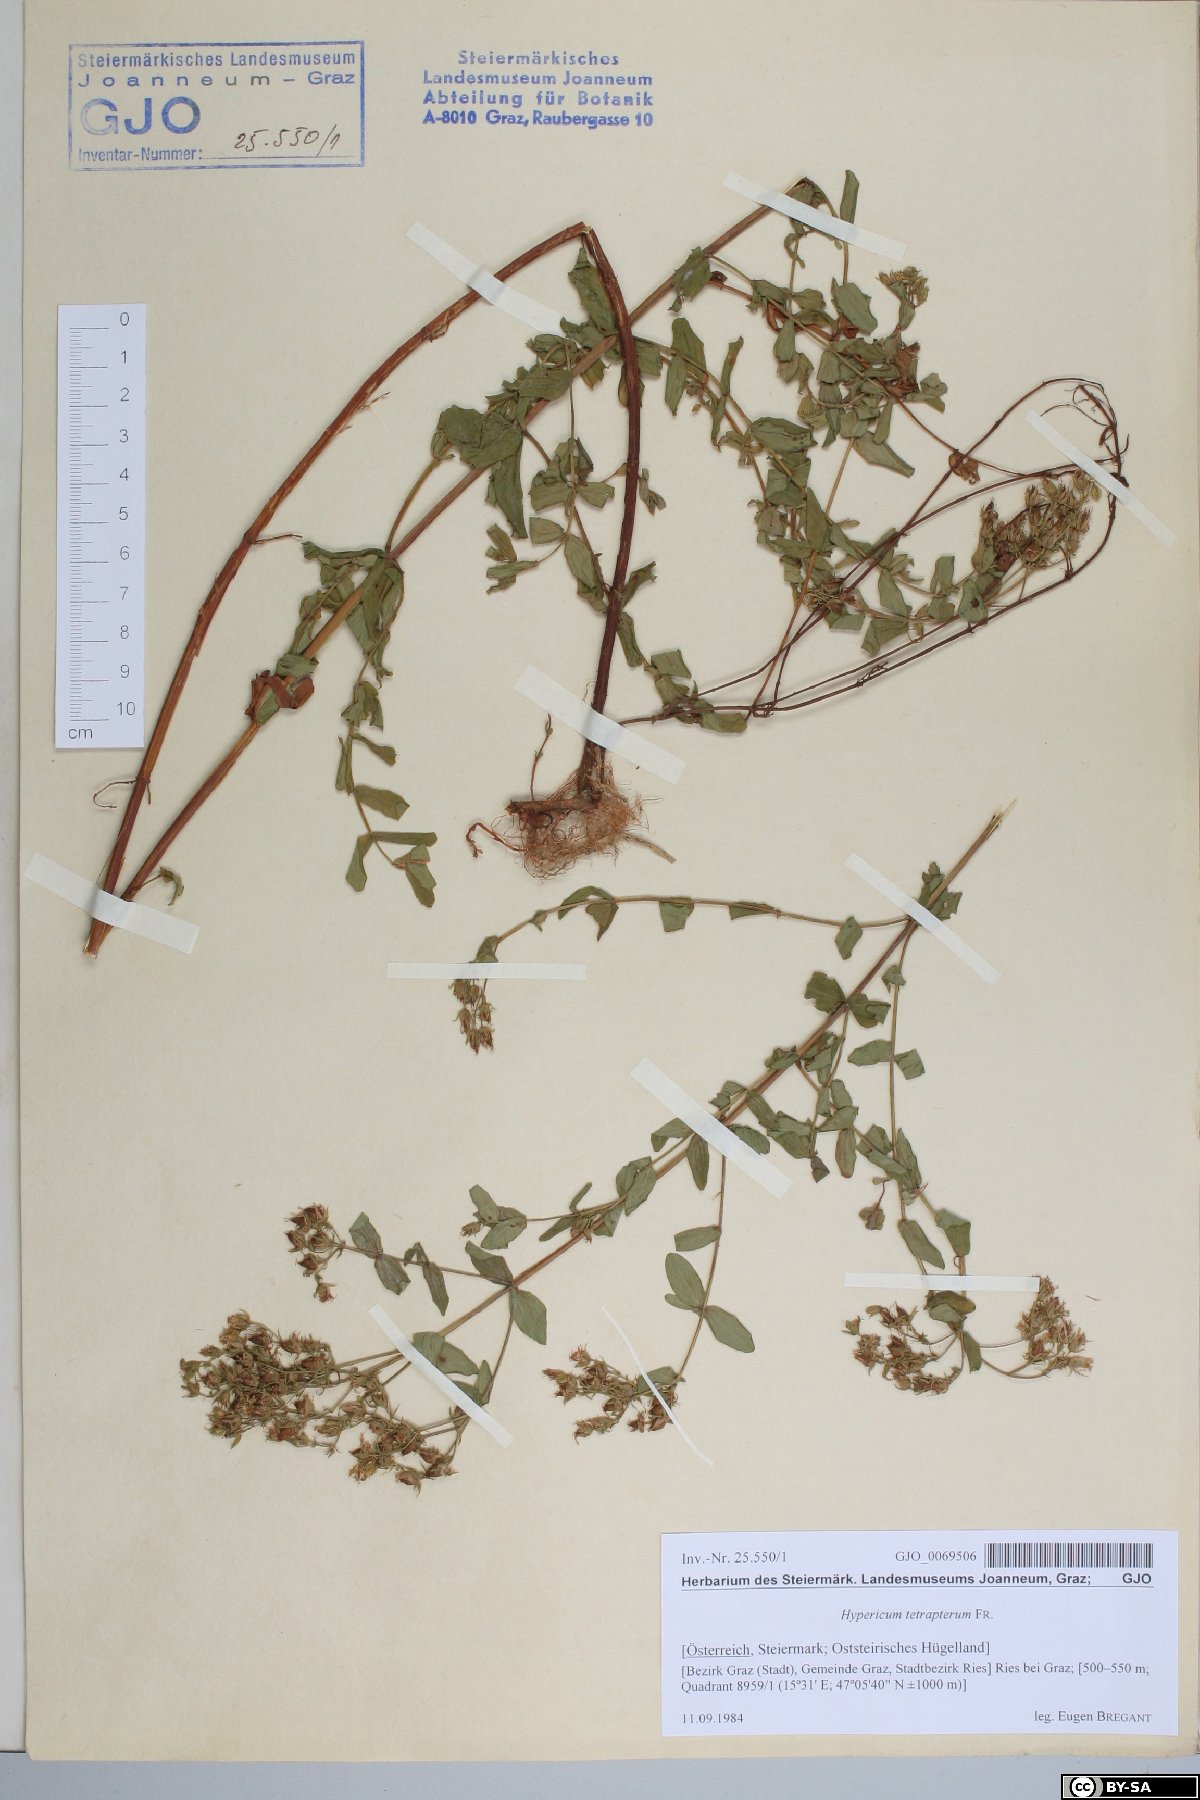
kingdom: Plantae
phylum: Tracheophyta
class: Magnoliopsida
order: Malpighiales
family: Hypericaceae
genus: Hypericum
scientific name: Hypericum tetrapterum
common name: Square-stalked st. john's-wort
